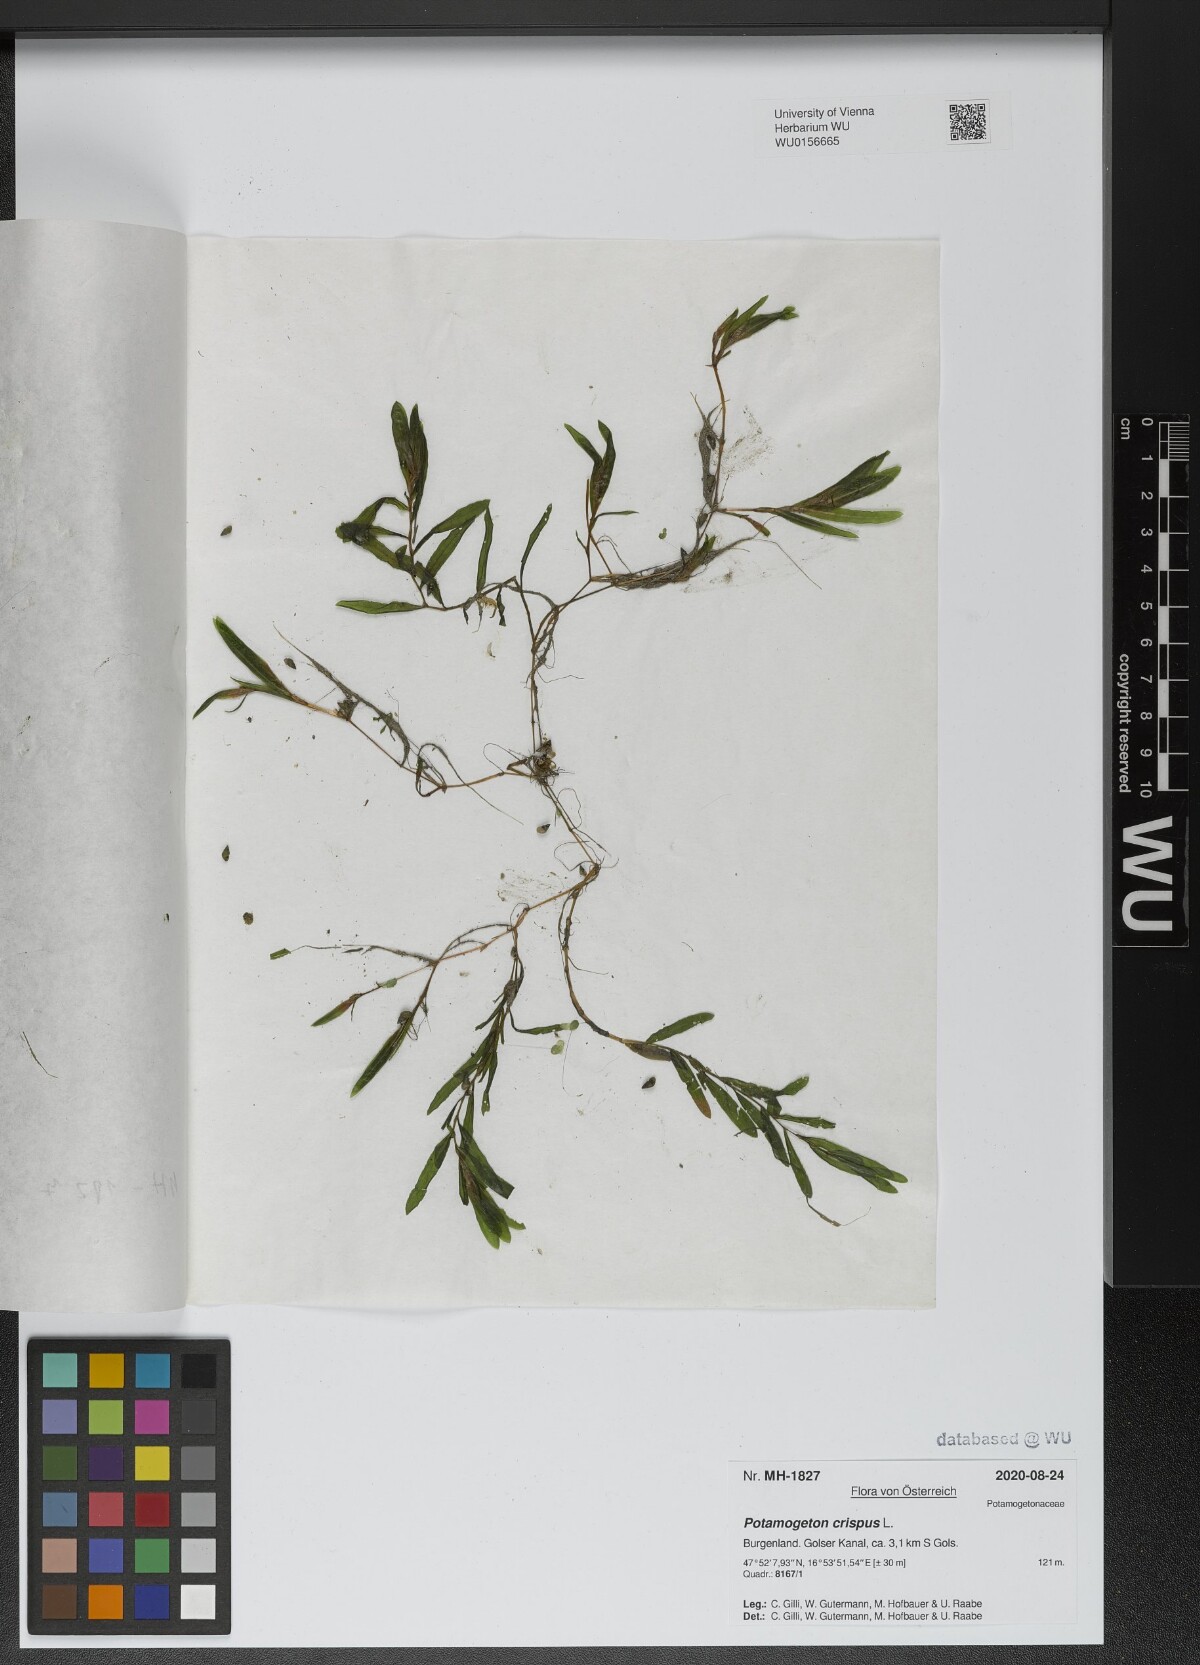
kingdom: Plantae
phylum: Tracheophyta
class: Liliopsida
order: Alismatales
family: Potamogetonaceae
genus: Potamogeton
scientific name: Potamogeton crispus
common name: Curled pondweed
